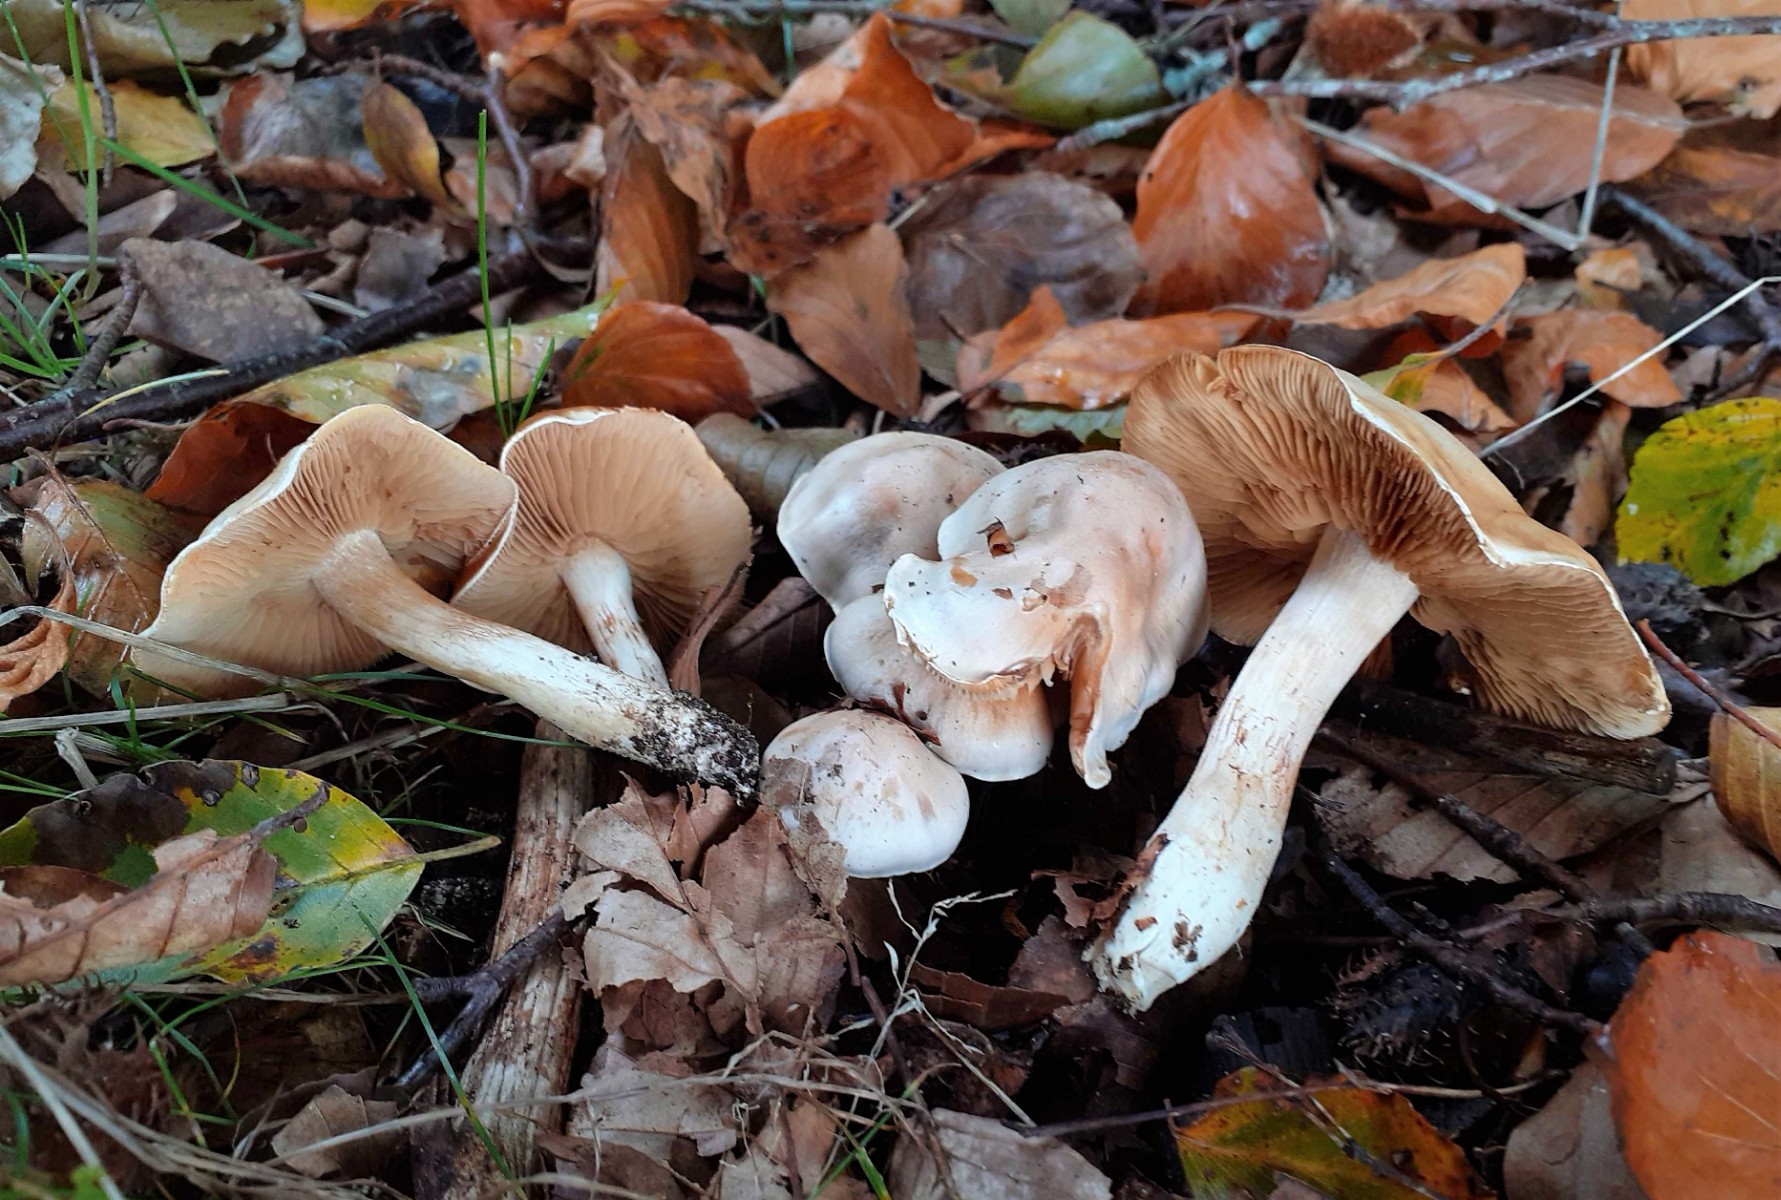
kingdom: Fungi
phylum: Basidiomycota
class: Agaricomycetes
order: Agaricales
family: Cortinariaceae
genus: Thaxterogaster
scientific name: Thaxterogaster leucoluteolus
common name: isabella slørhat
